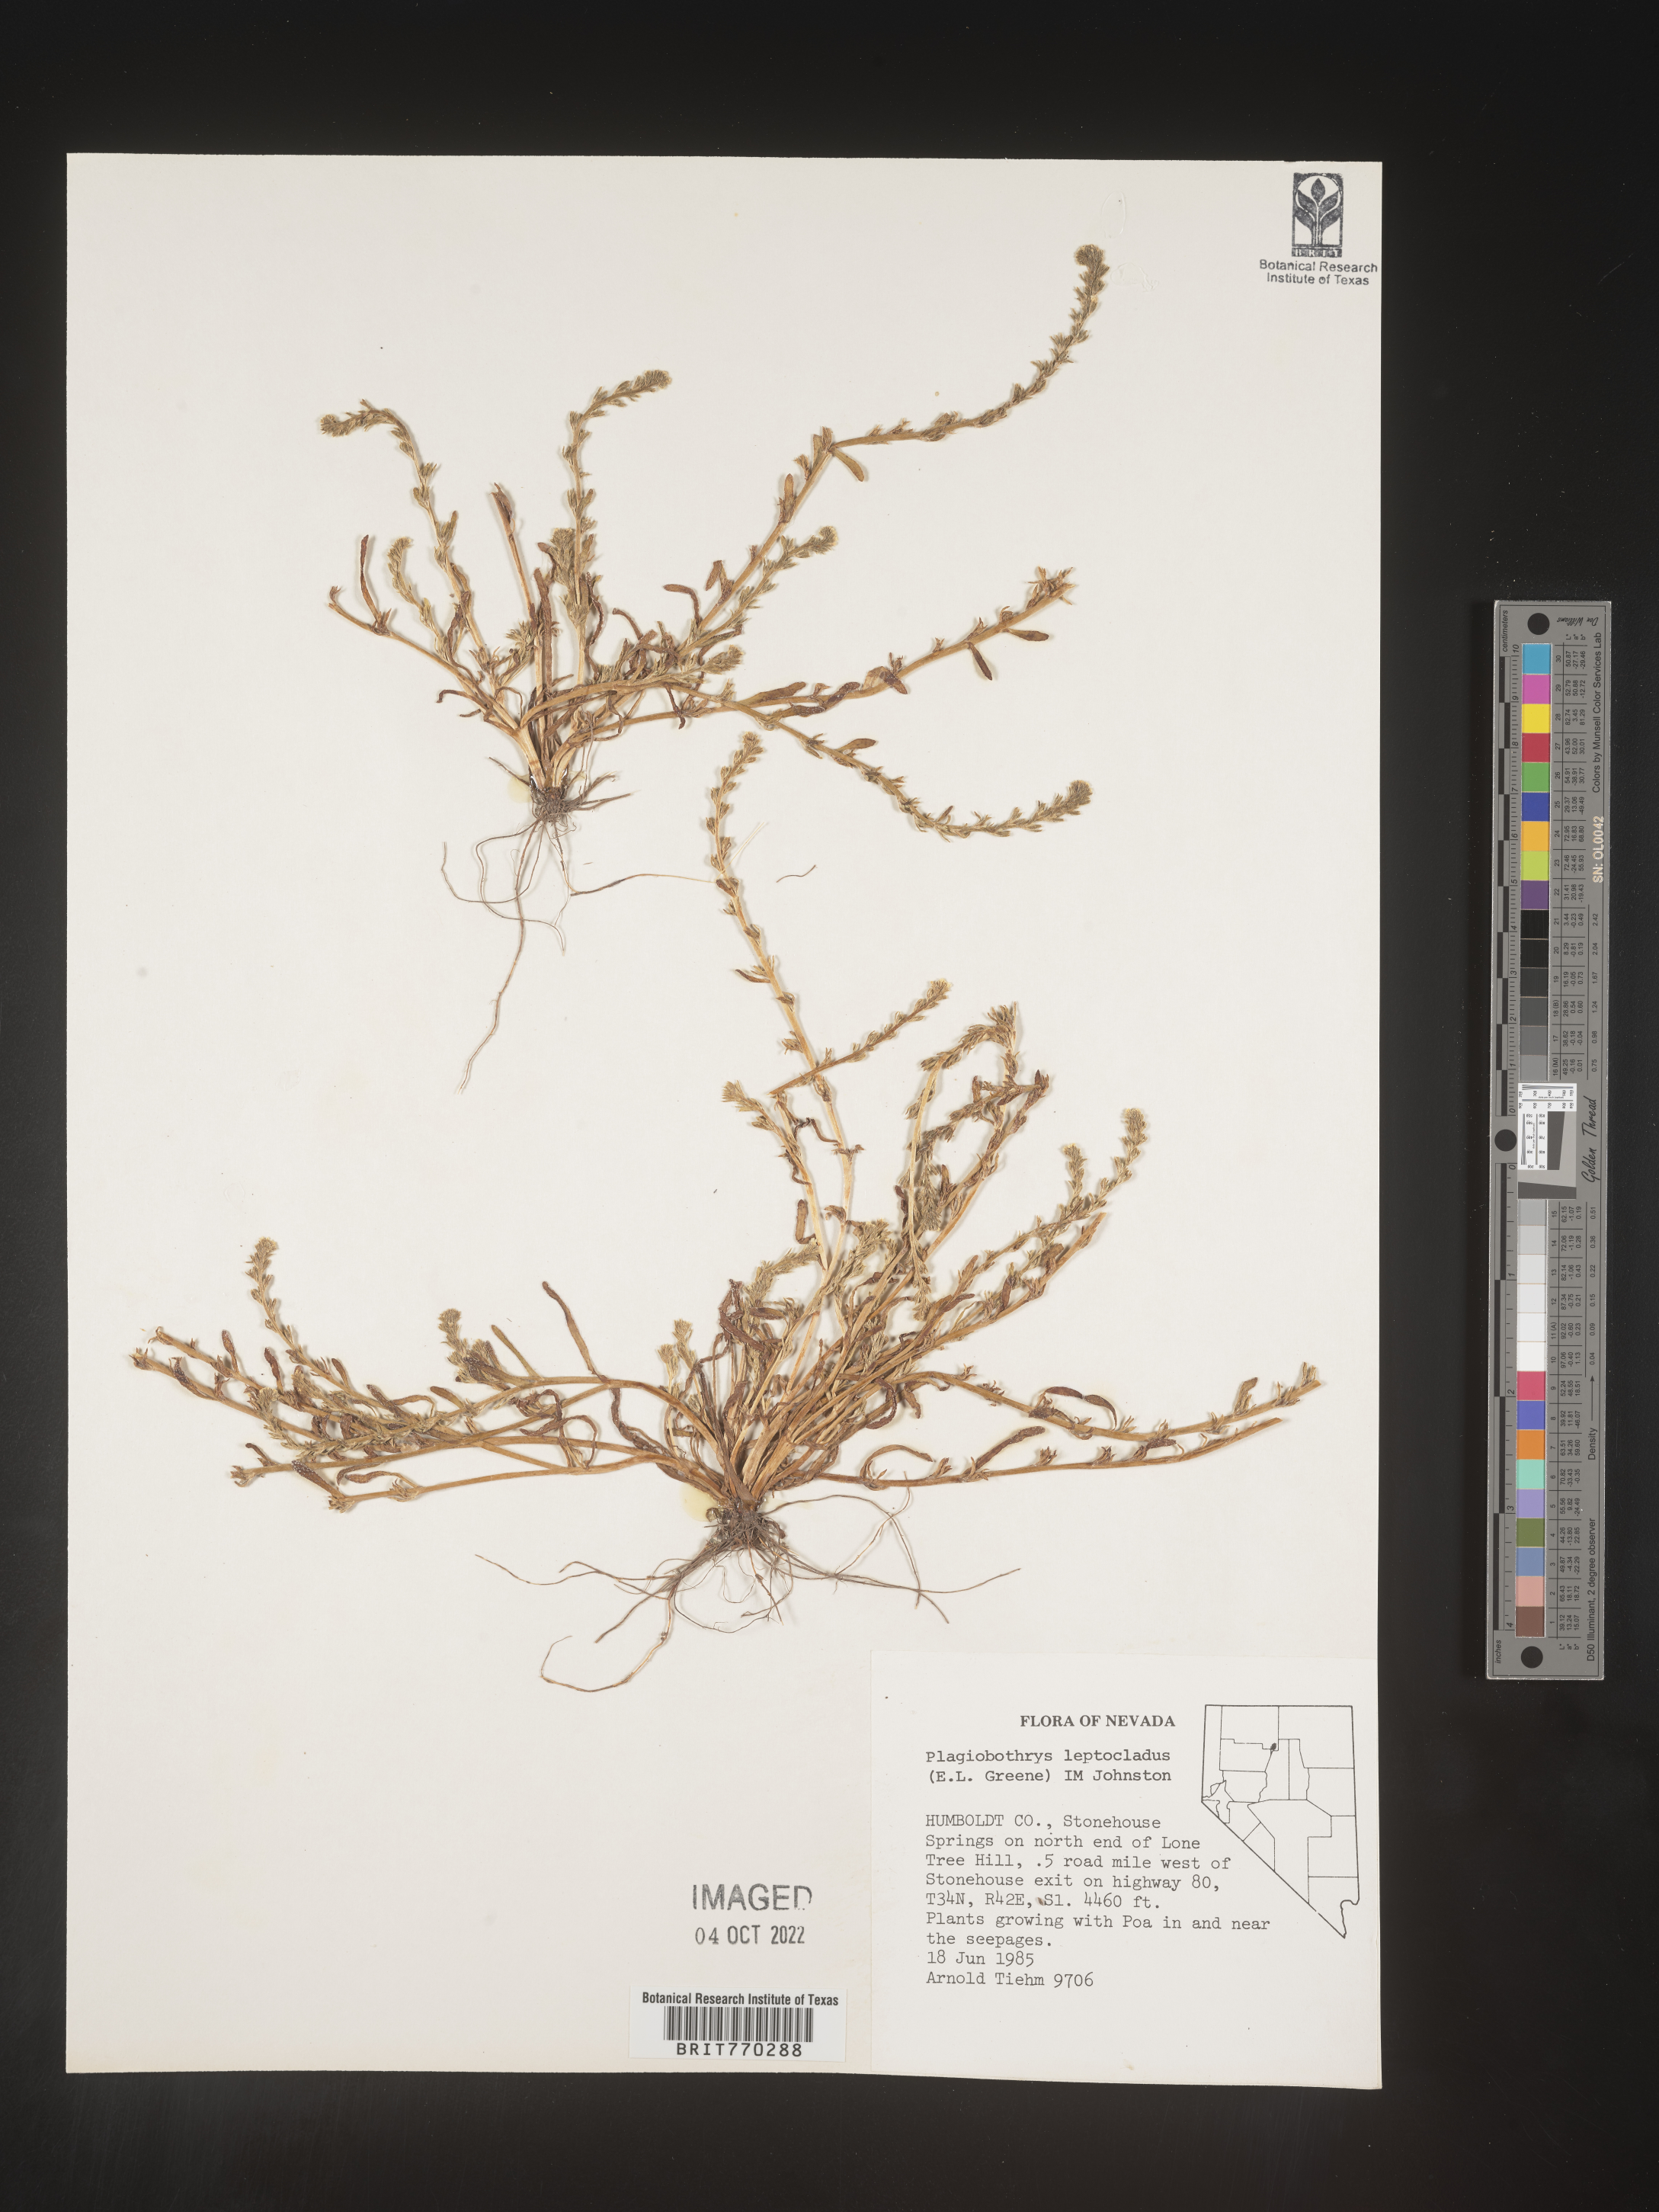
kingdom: Plantae
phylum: Tracheophyta
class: Magnoliopsida
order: Boraginales
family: Boraginaceae
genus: Plagiobothrys
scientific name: Plagiobothrys
